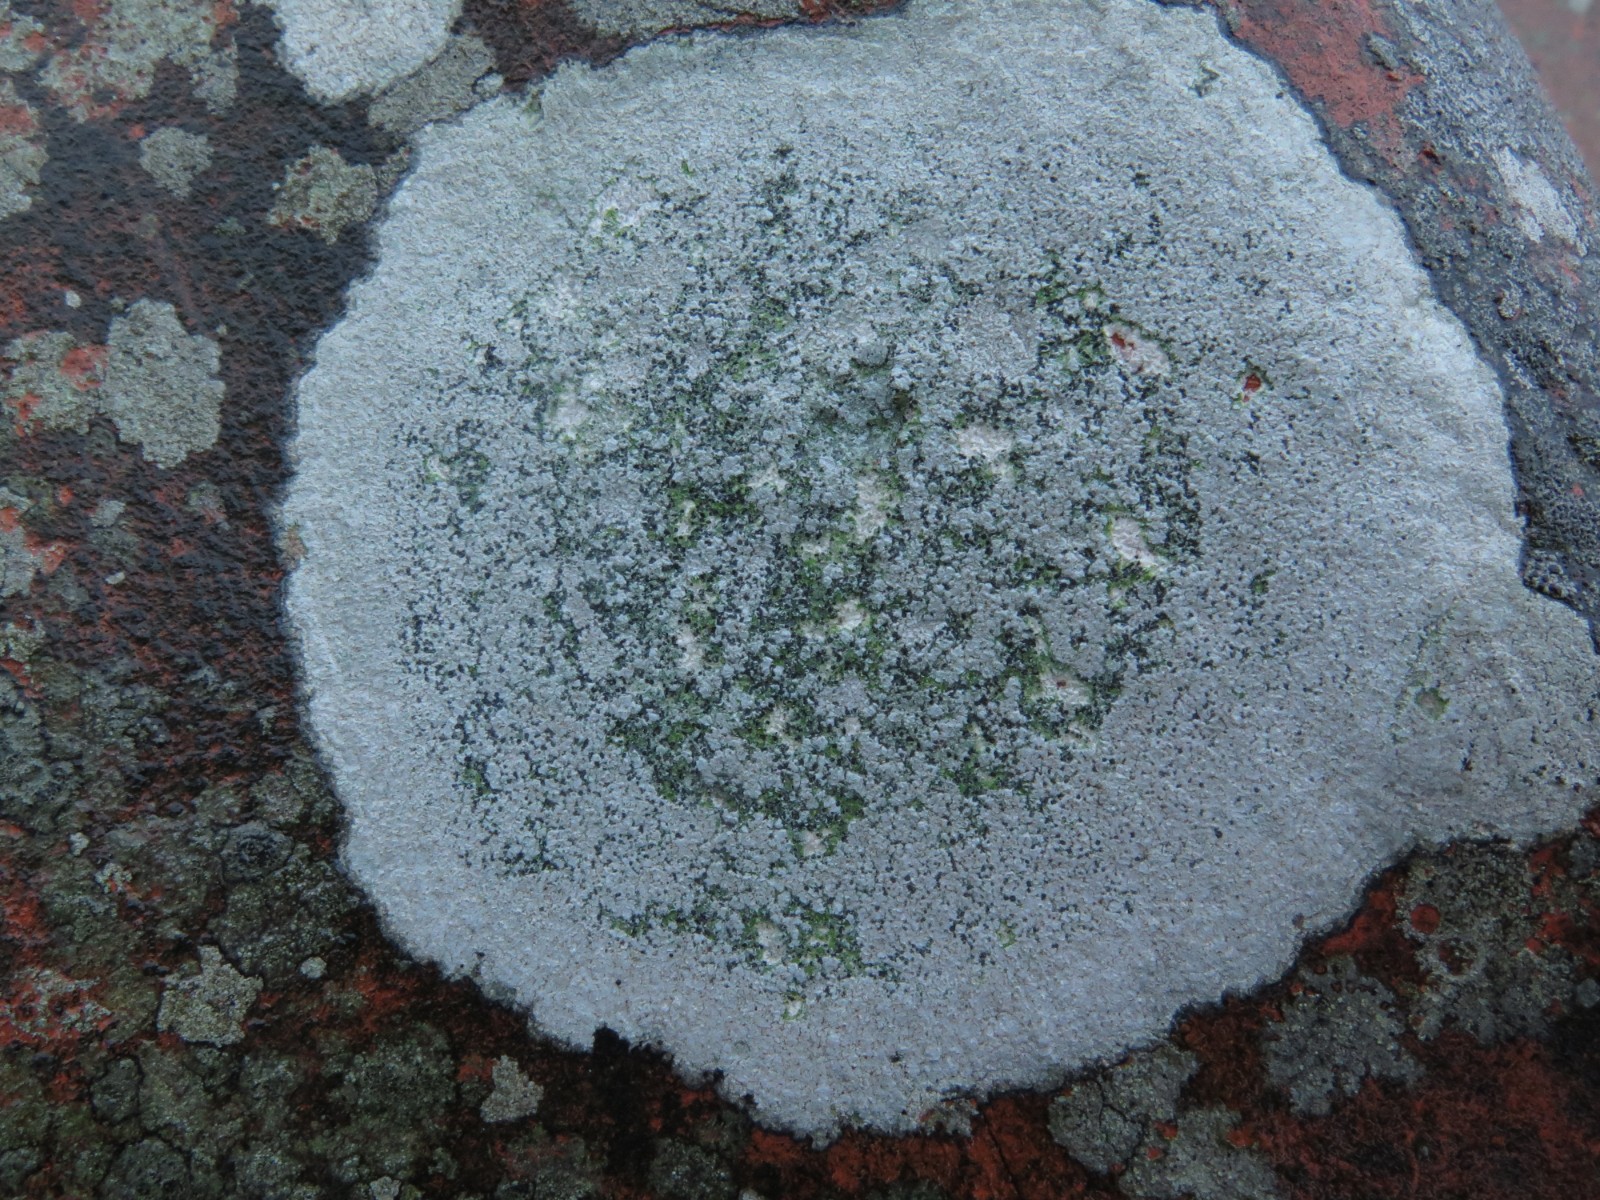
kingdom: Fungi
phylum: Ascomycota
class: Lecanoromycetes
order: Lecideales
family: Lecideaceae
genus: Porpidia
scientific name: Porpidia tuberculosa
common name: broget bredskivelav
